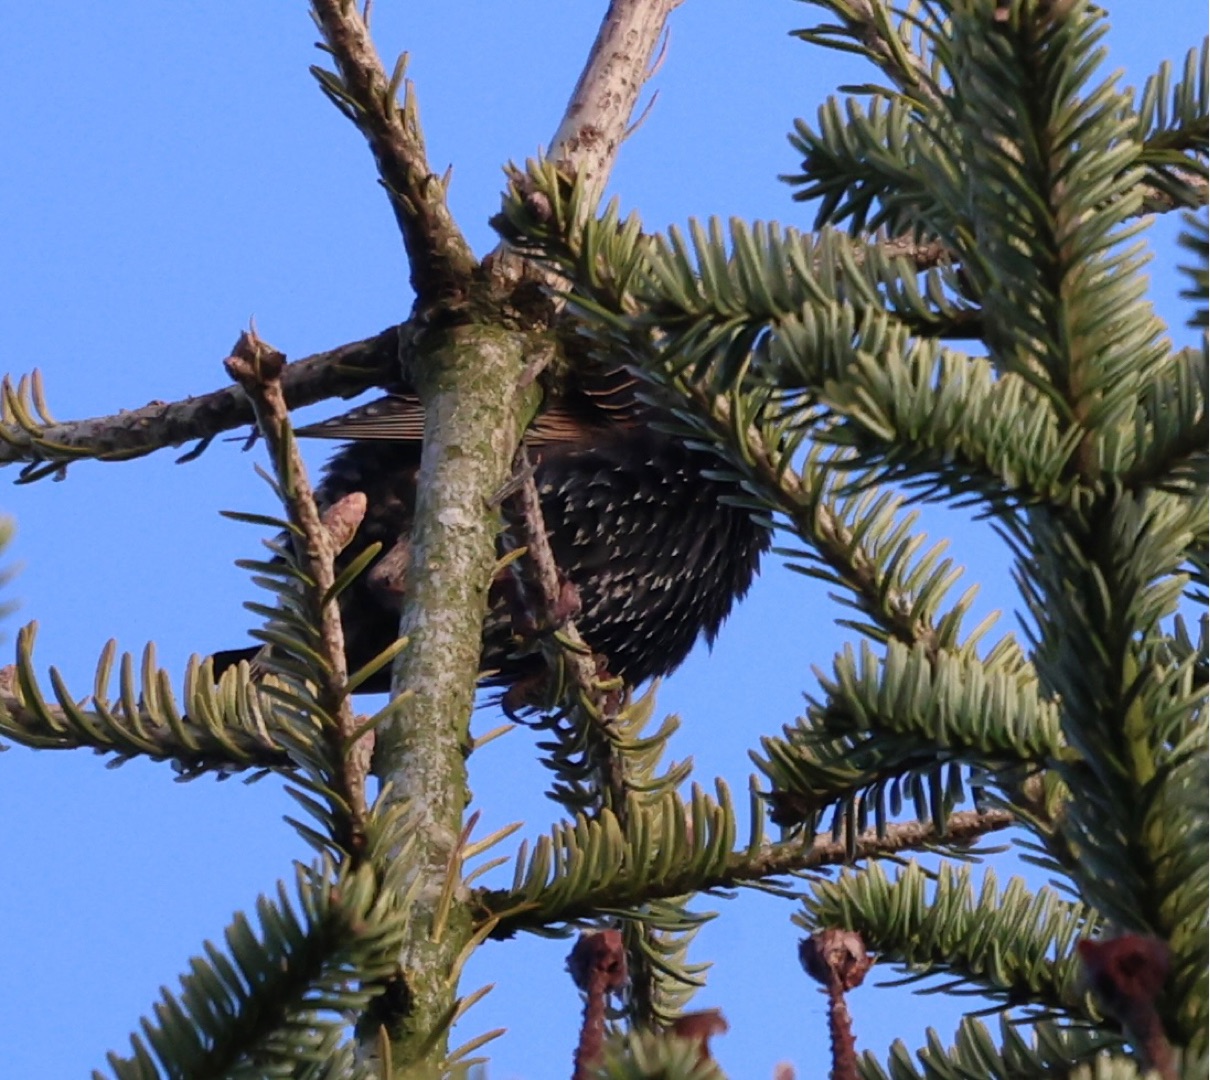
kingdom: Animalia
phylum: Chordata
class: Aves
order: Passeriformes
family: Sturnidae
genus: Sturnus
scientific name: Sturnus vulgaris
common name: Stær
